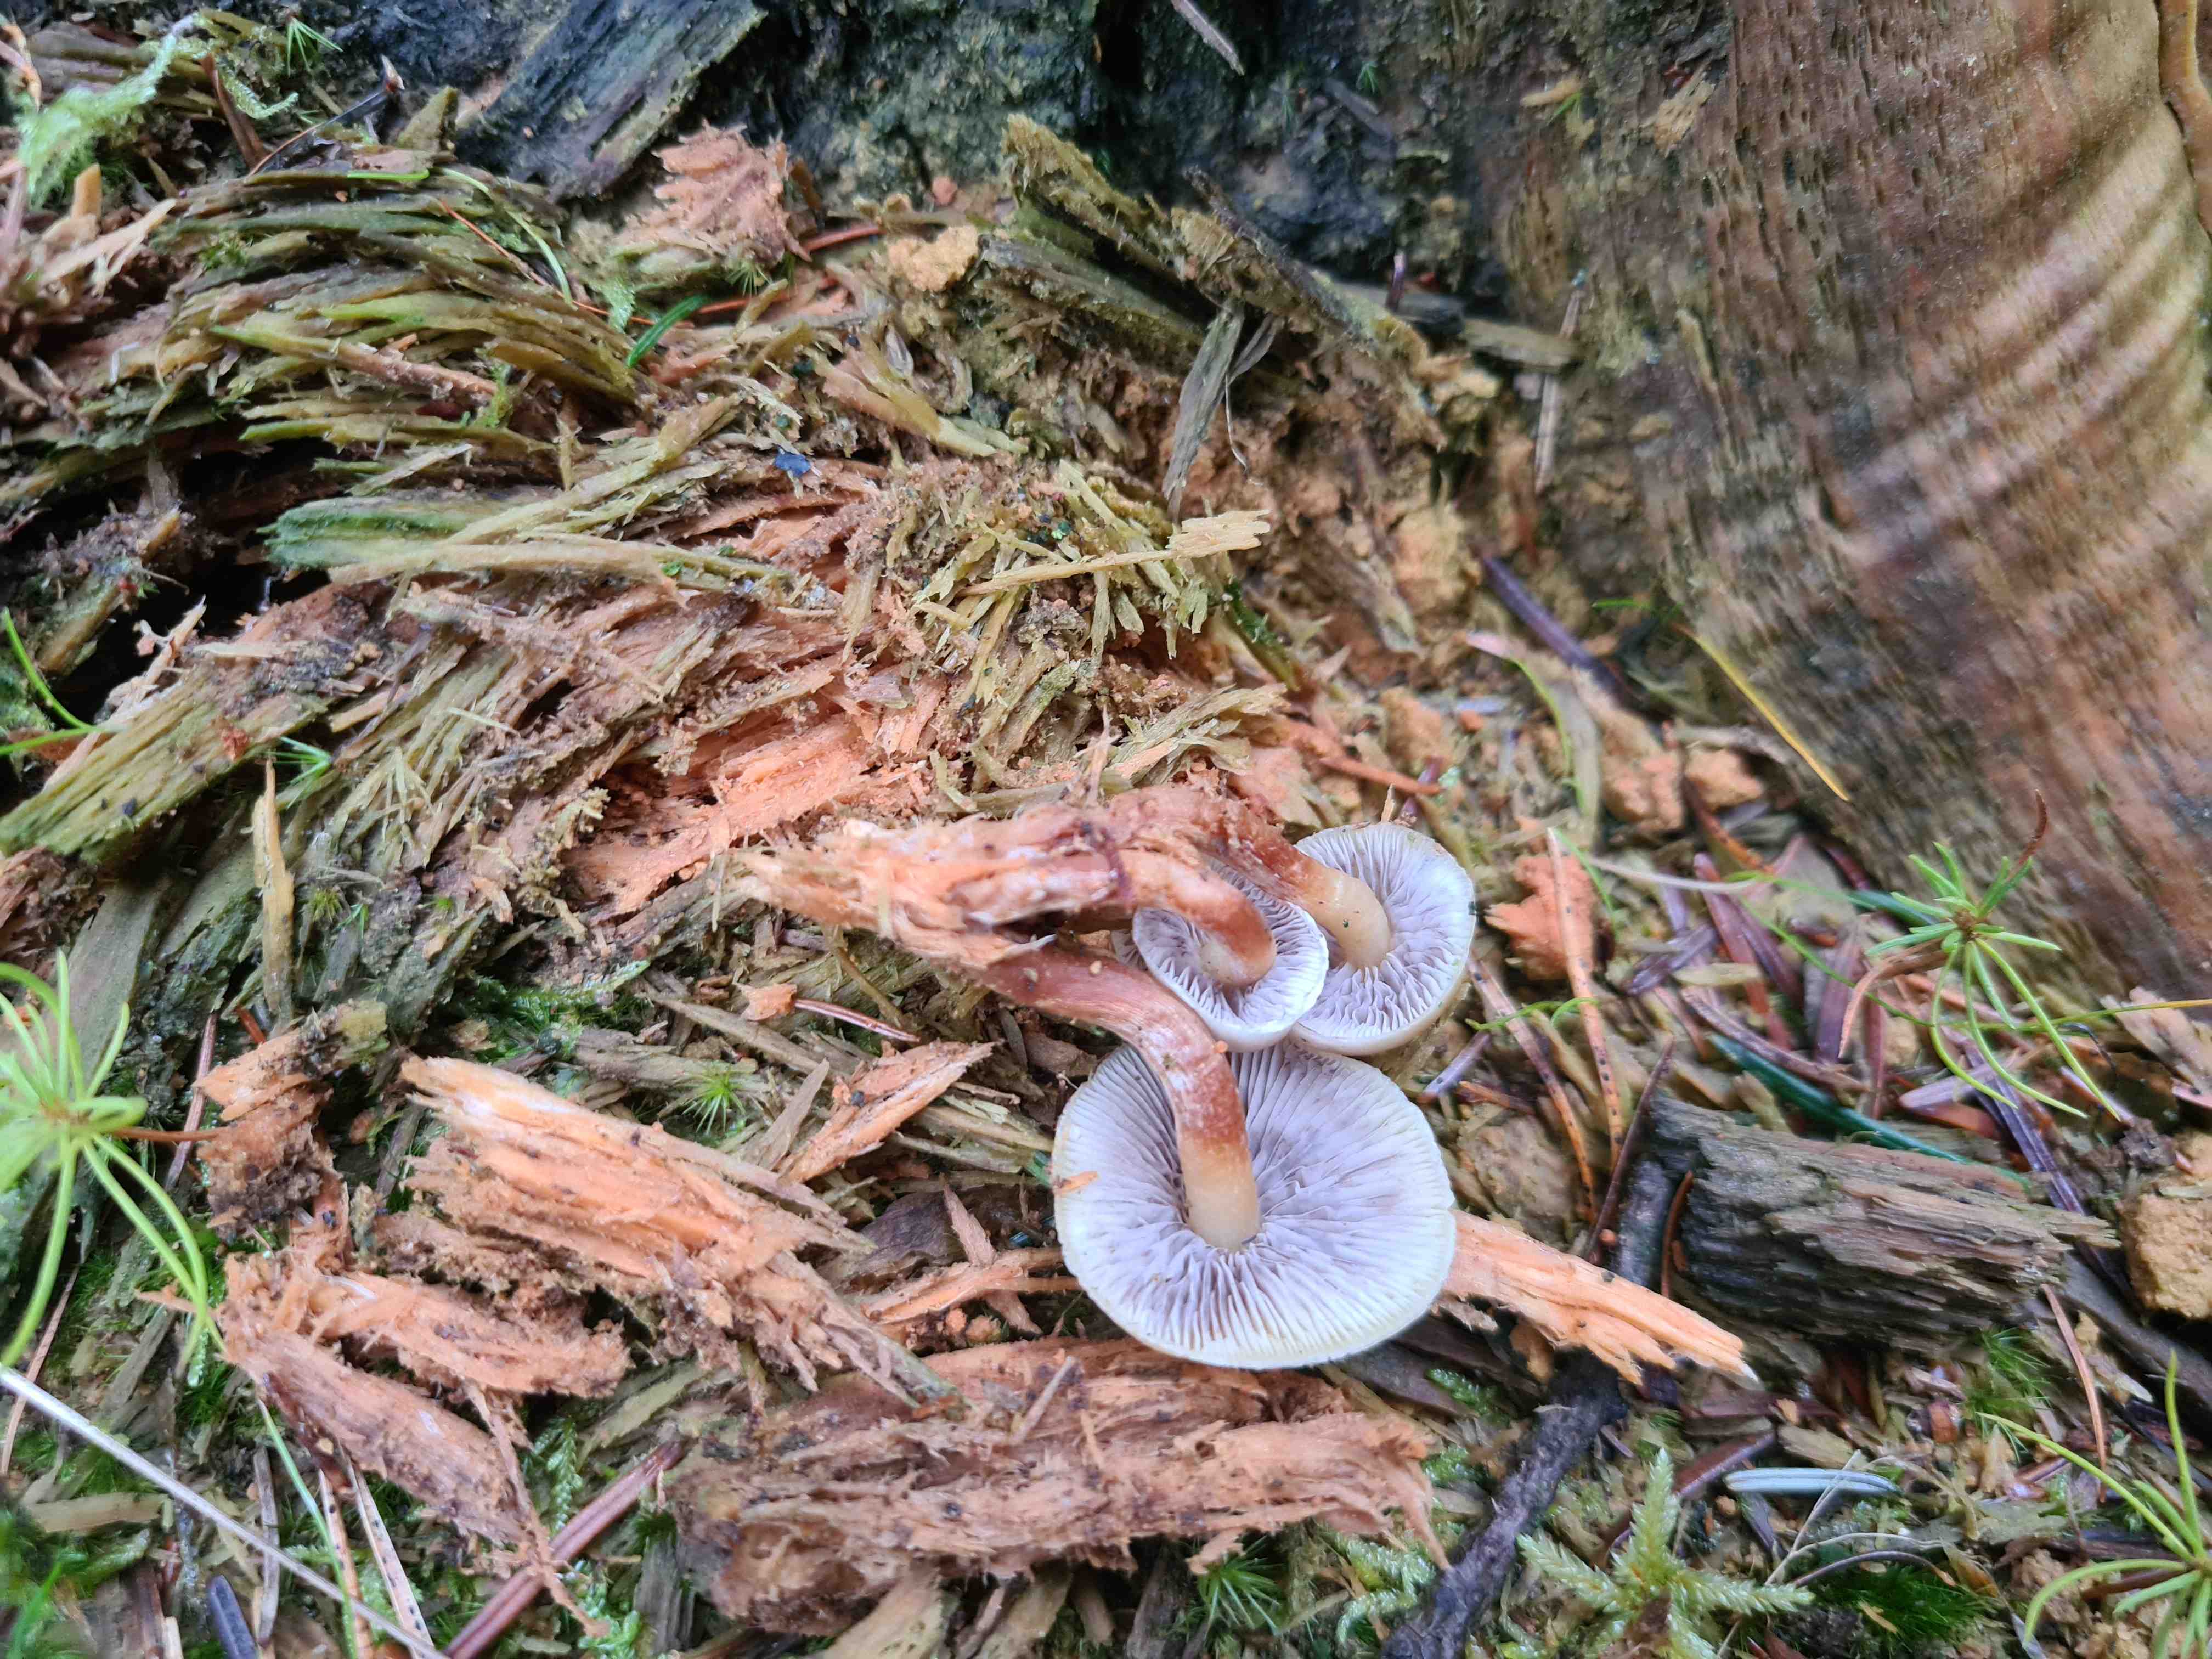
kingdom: Fungi
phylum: Basidiomycota
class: Agaricomycetes
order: Agaricales
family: Strophariaceae
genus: Hypholoma
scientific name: Hypholoma capnoides
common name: gran-svovlhat
